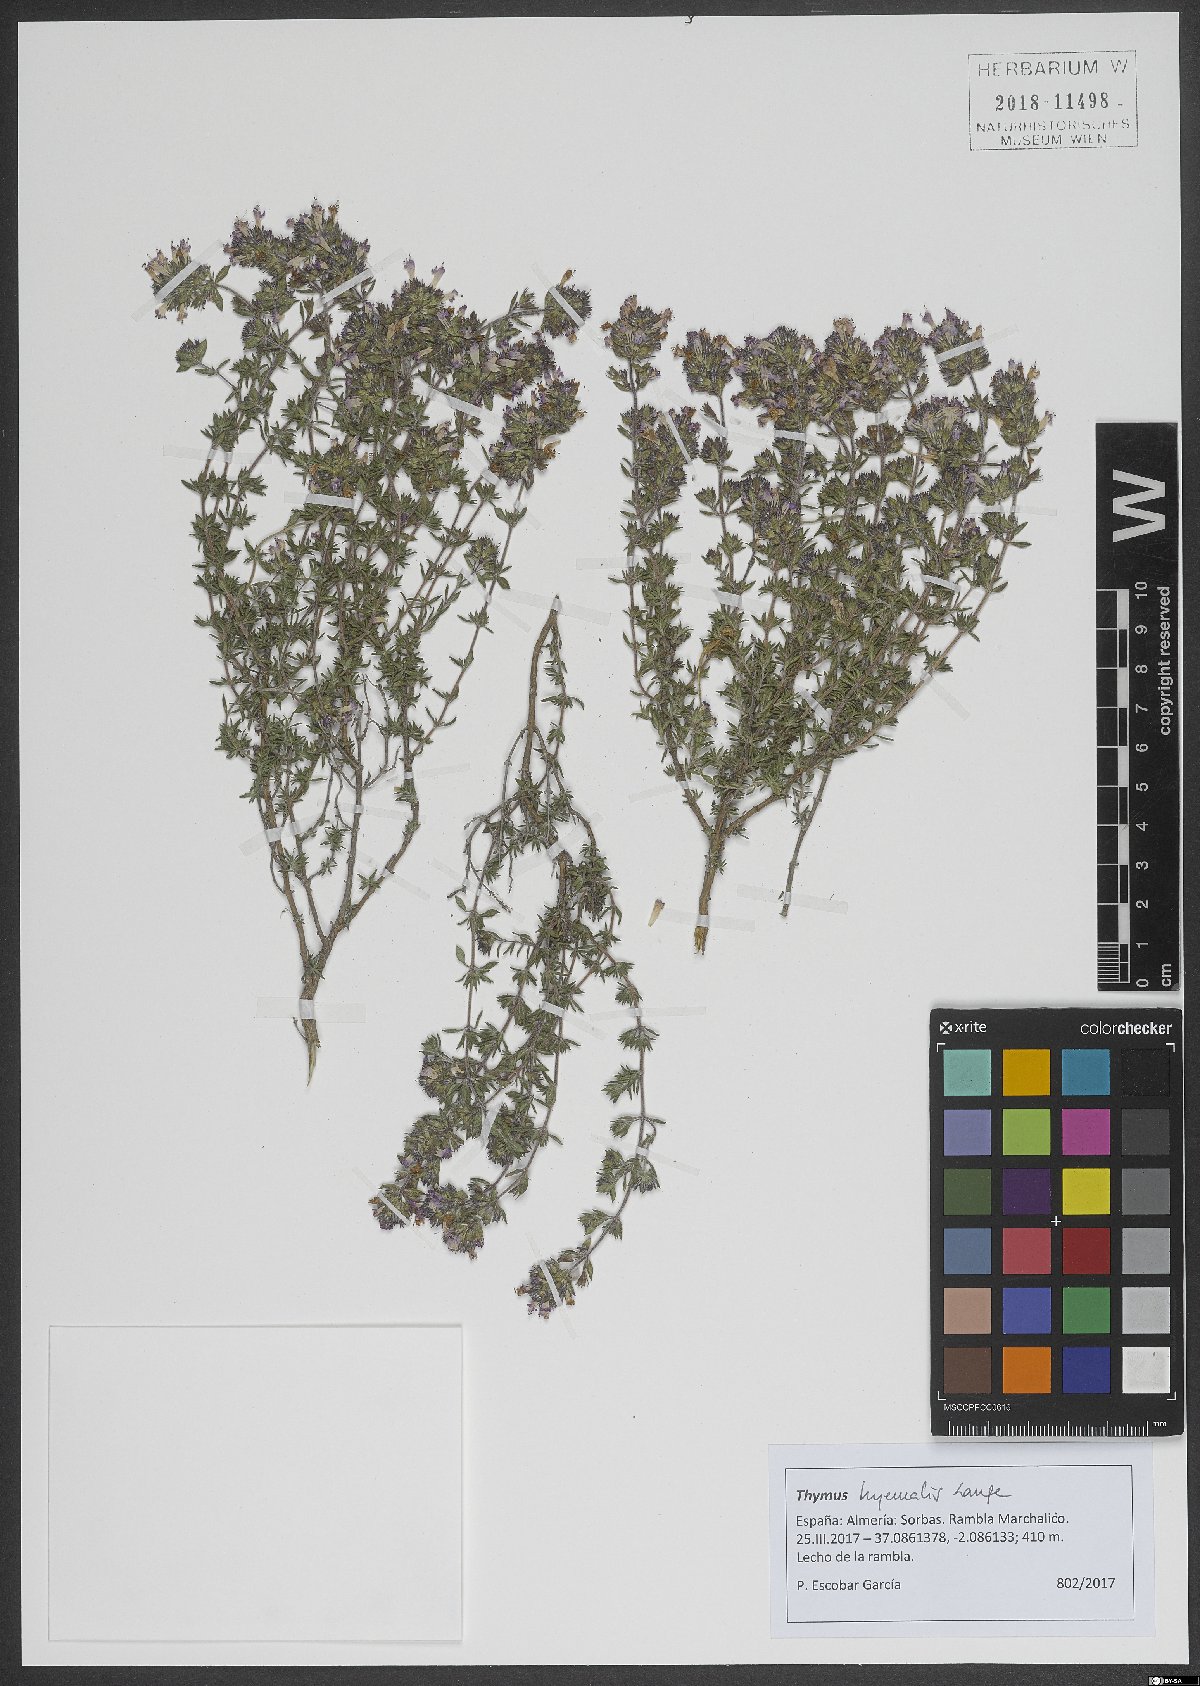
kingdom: Plantae
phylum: Tracheophyta
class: Magnoliopsida
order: Lamiales
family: Lamiaceae
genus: Thymus
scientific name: Thymus hyemalis
